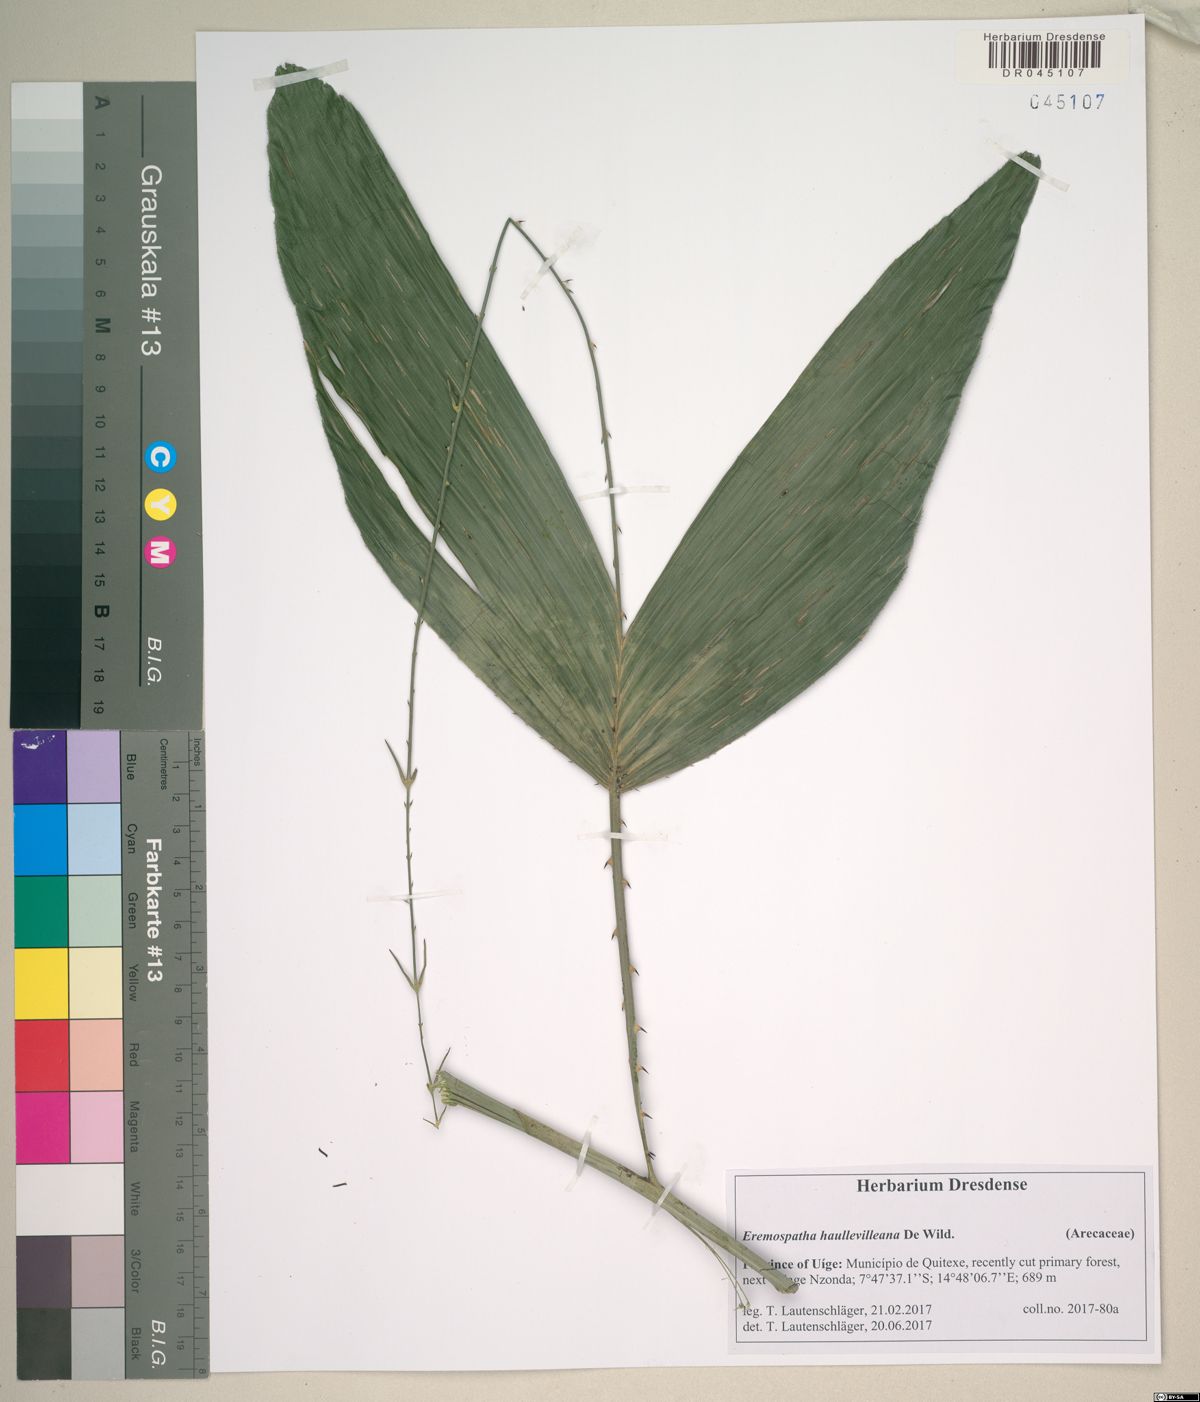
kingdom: Plantae
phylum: Tracheophyta
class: Liliopsida
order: Arecales
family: Arecaceae
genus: Eremospatha
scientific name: Eremospatha haullevilleana
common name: Rattan
